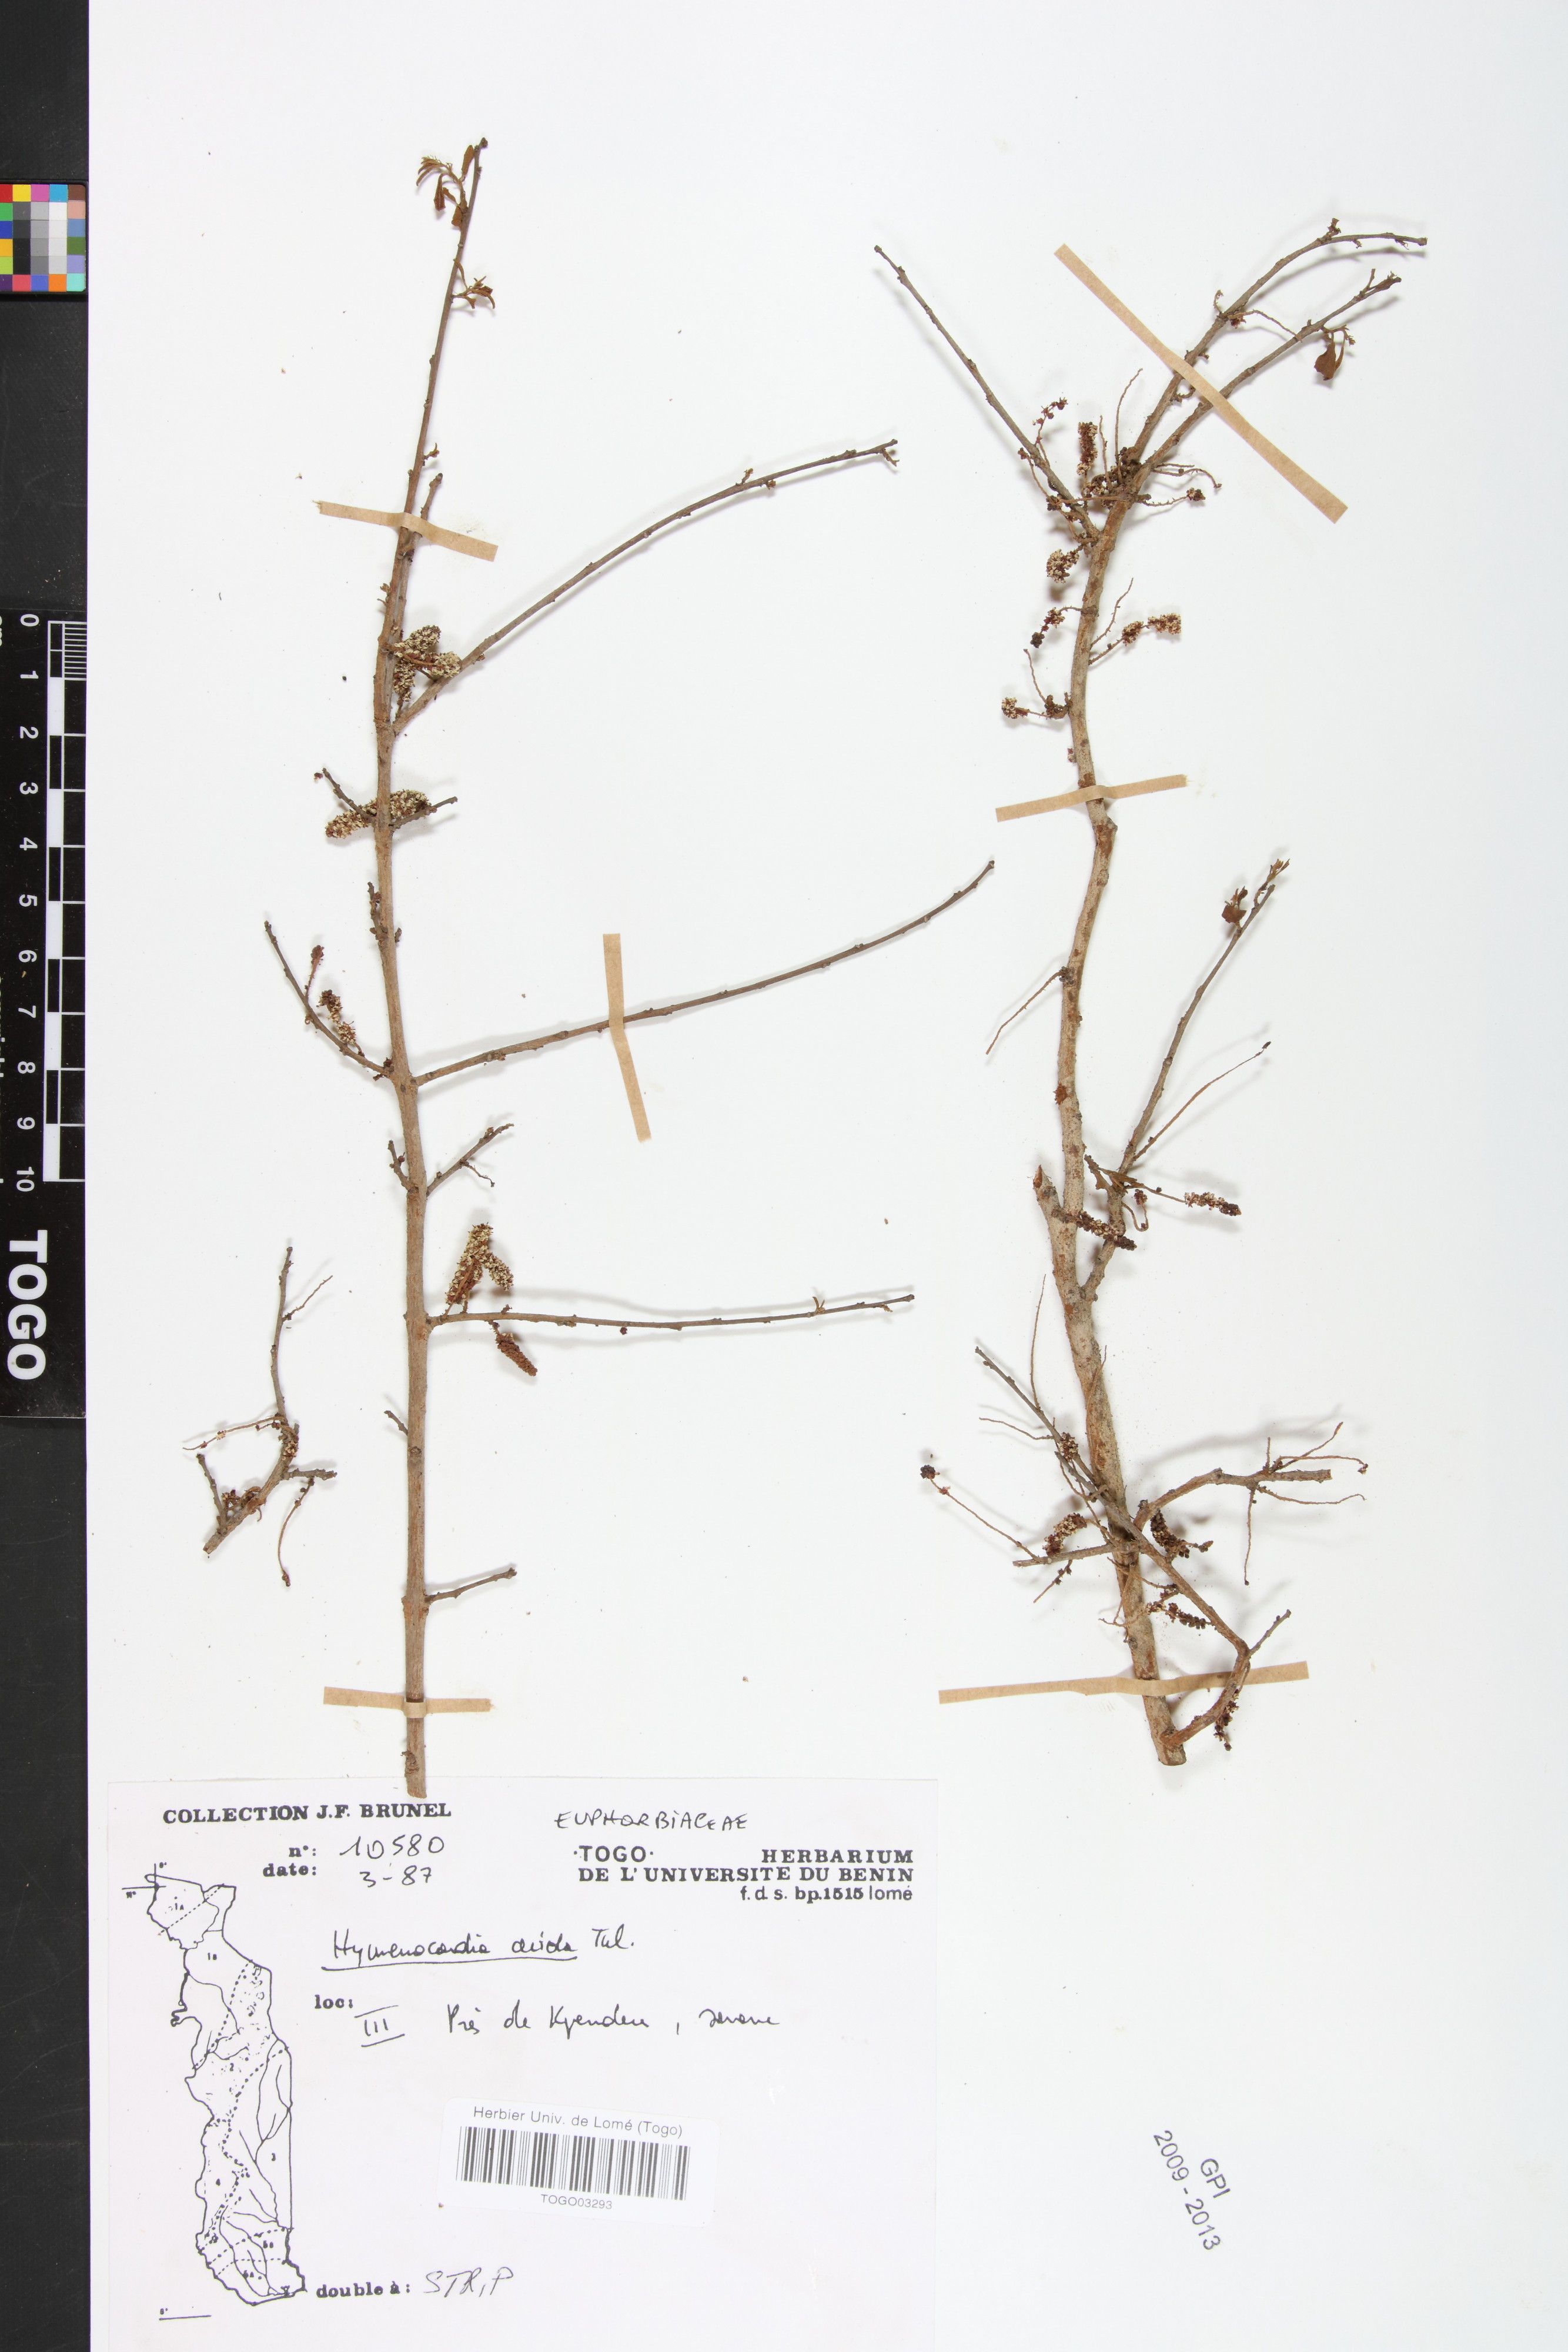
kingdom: Plantae
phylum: Tracheophyta
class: Magnoliopsida
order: Malpighiales
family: Phyllanthaceae
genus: Hymenocardia
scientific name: Hymenocardia acida
